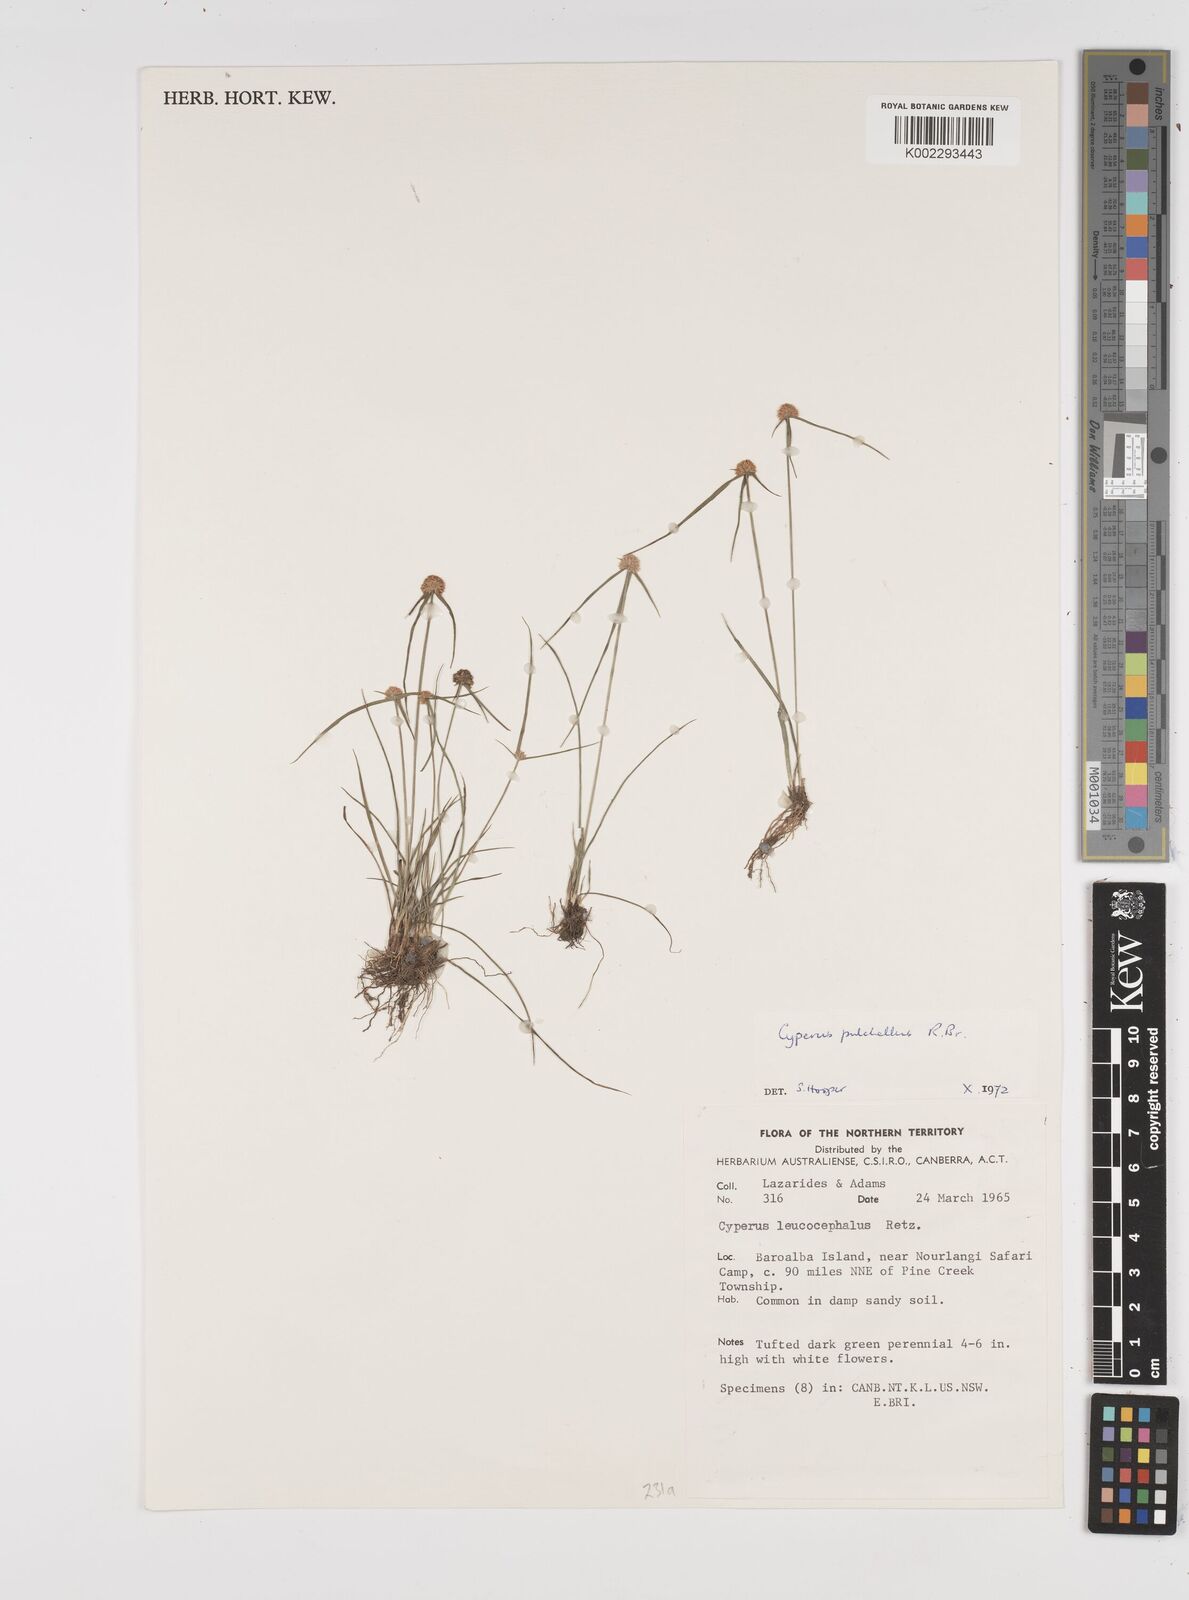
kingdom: Plantae
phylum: Tracheophyta
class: Liliopsida
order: Poales
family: Cyperaceae
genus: Cyperus
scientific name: Cyperus pulchellus
